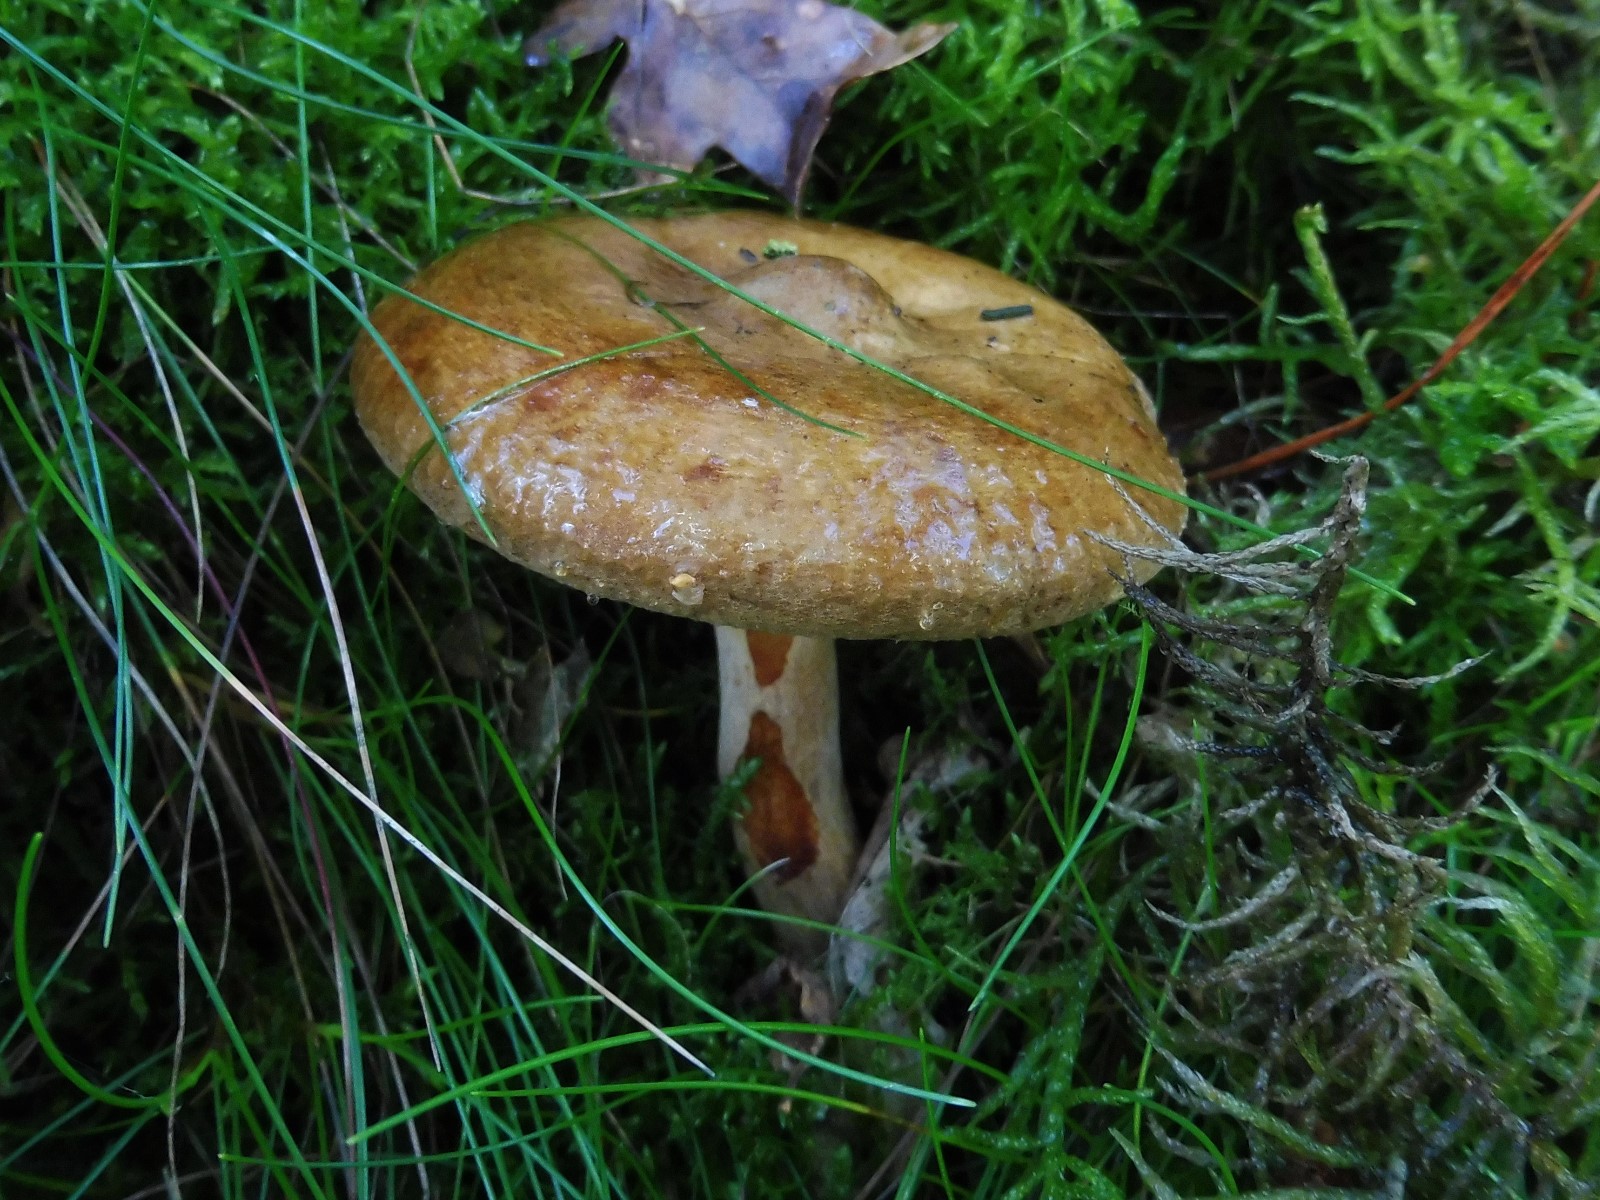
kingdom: Fungi
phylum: Basidiomycota
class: Agaricomycetes
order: Boletales
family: Paxillaceae
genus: Paxillus
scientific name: Paxillus involutus
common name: almindelig netbladhat
